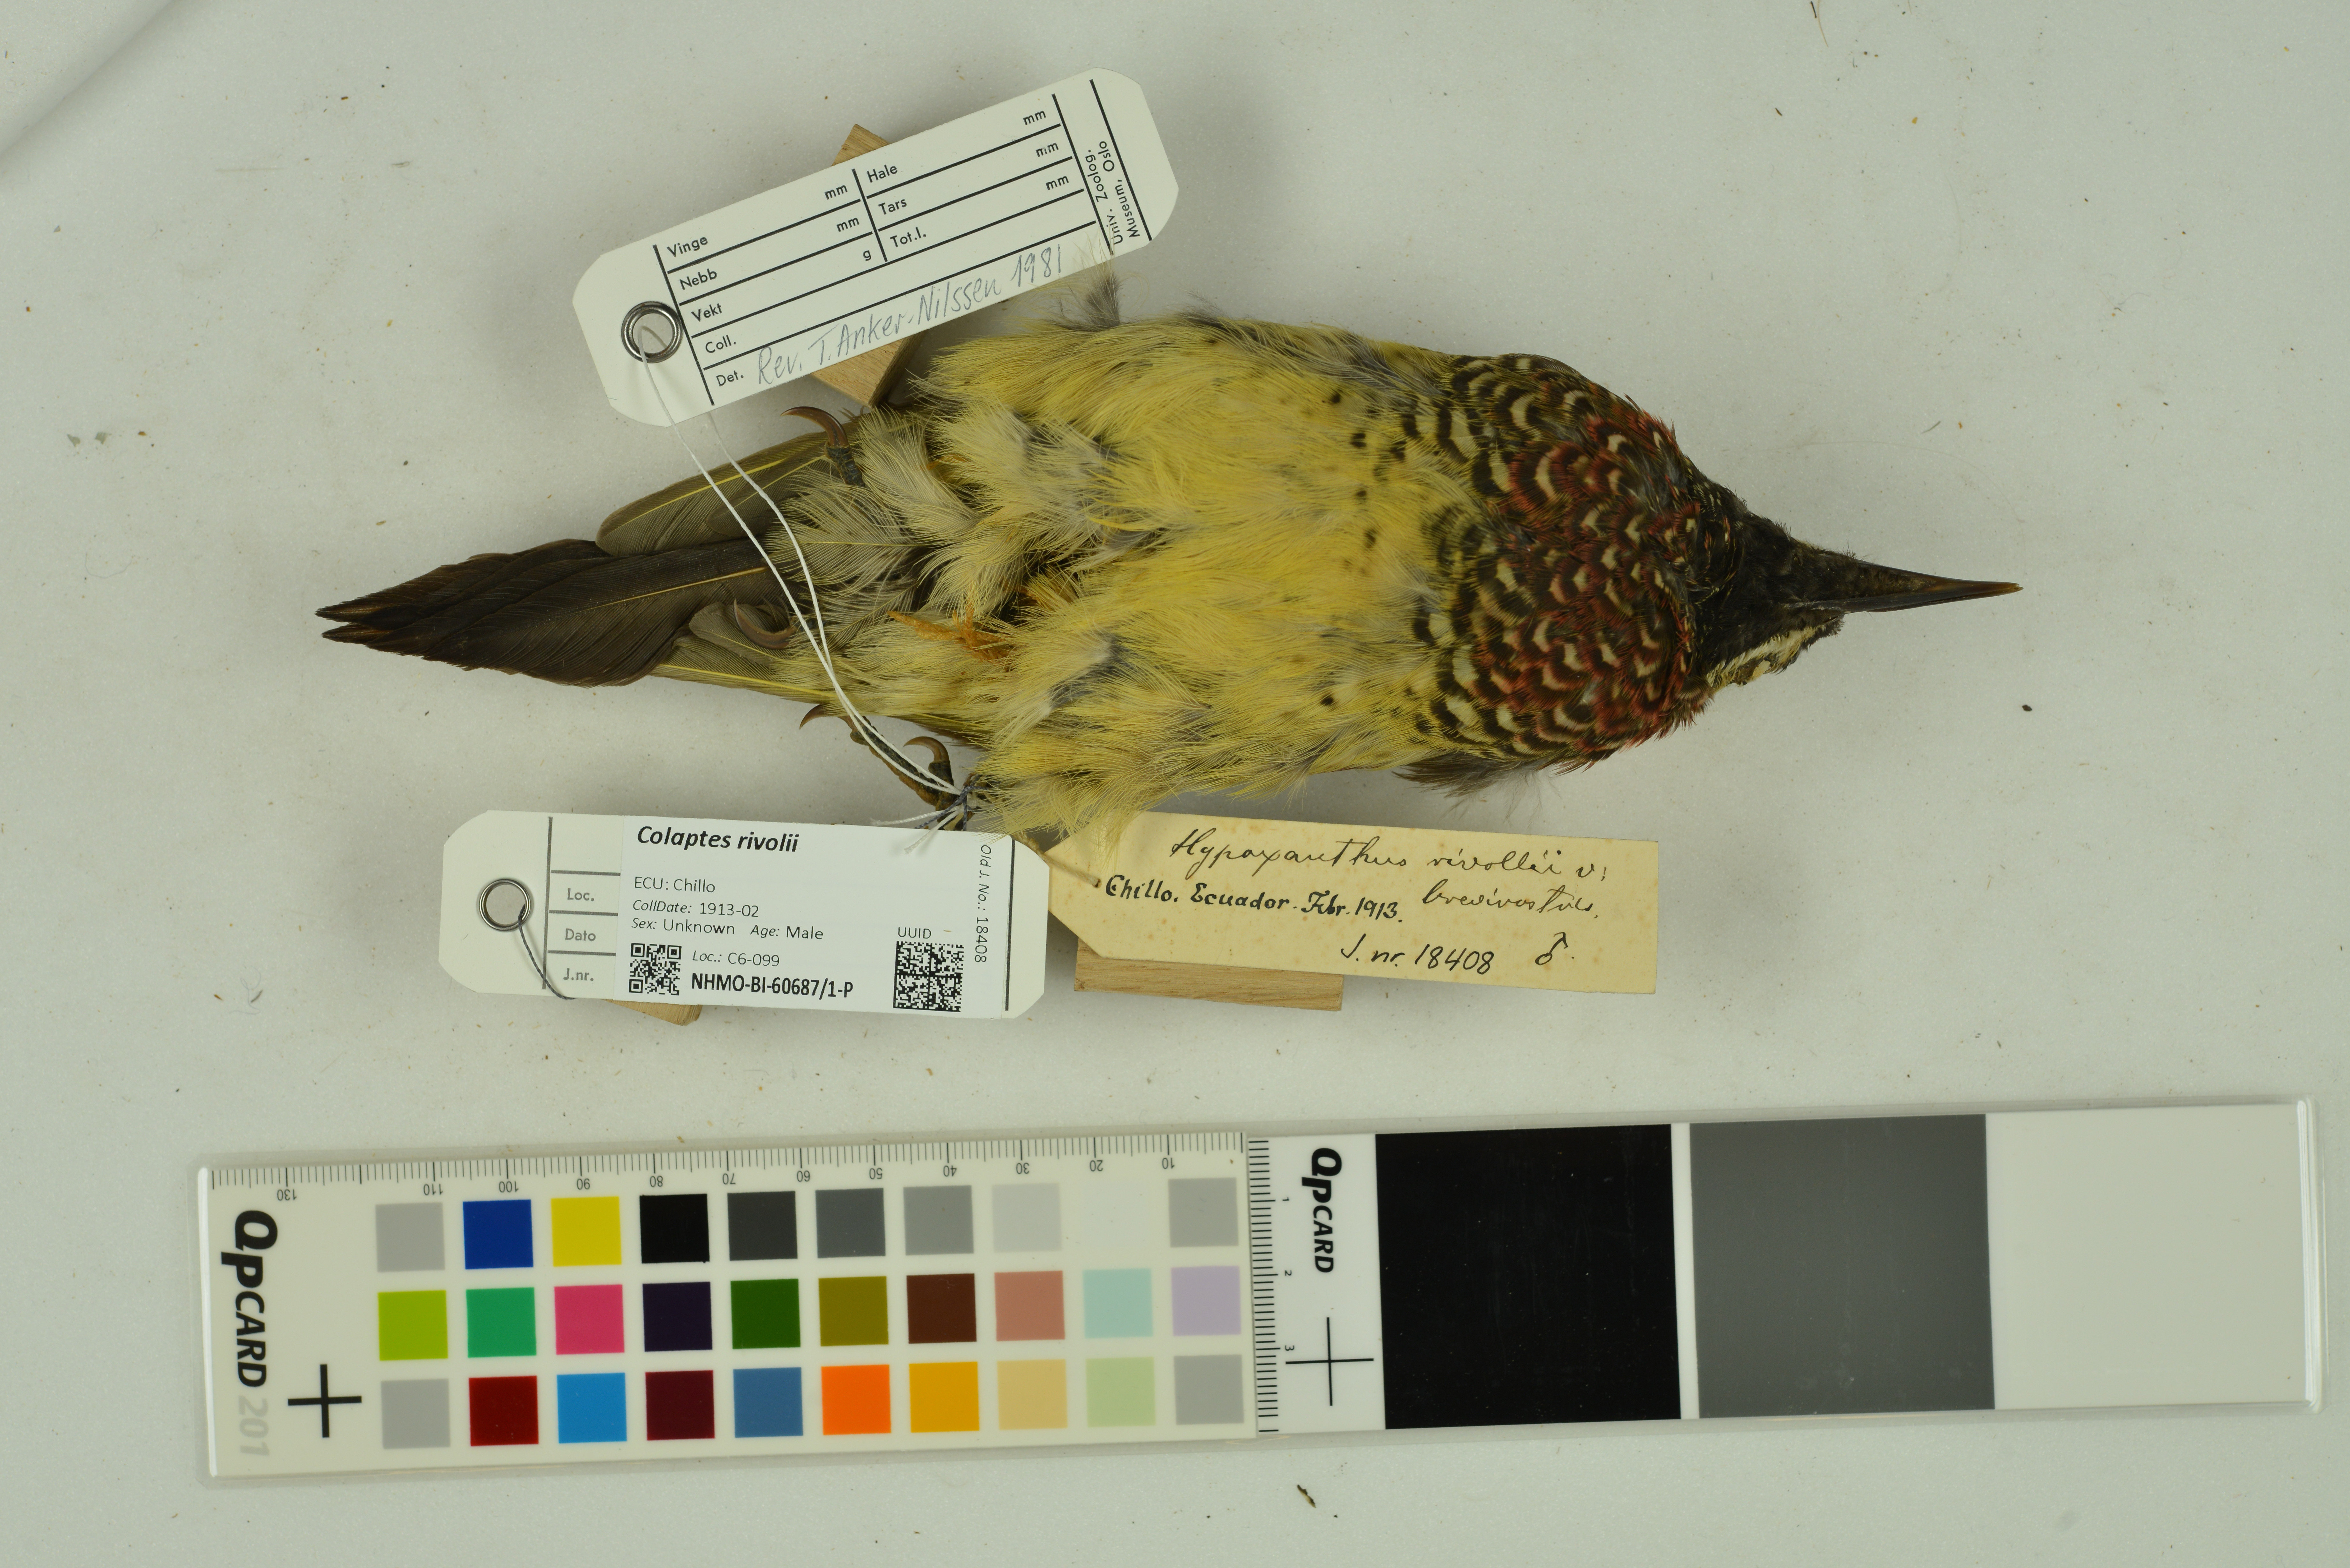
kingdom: Animalia
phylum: Chordata
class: Aves
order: Piciformes
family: Picidae
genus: Colaptes
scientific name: Colaptes rivolii
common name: Crimson-mantled woodpecker
